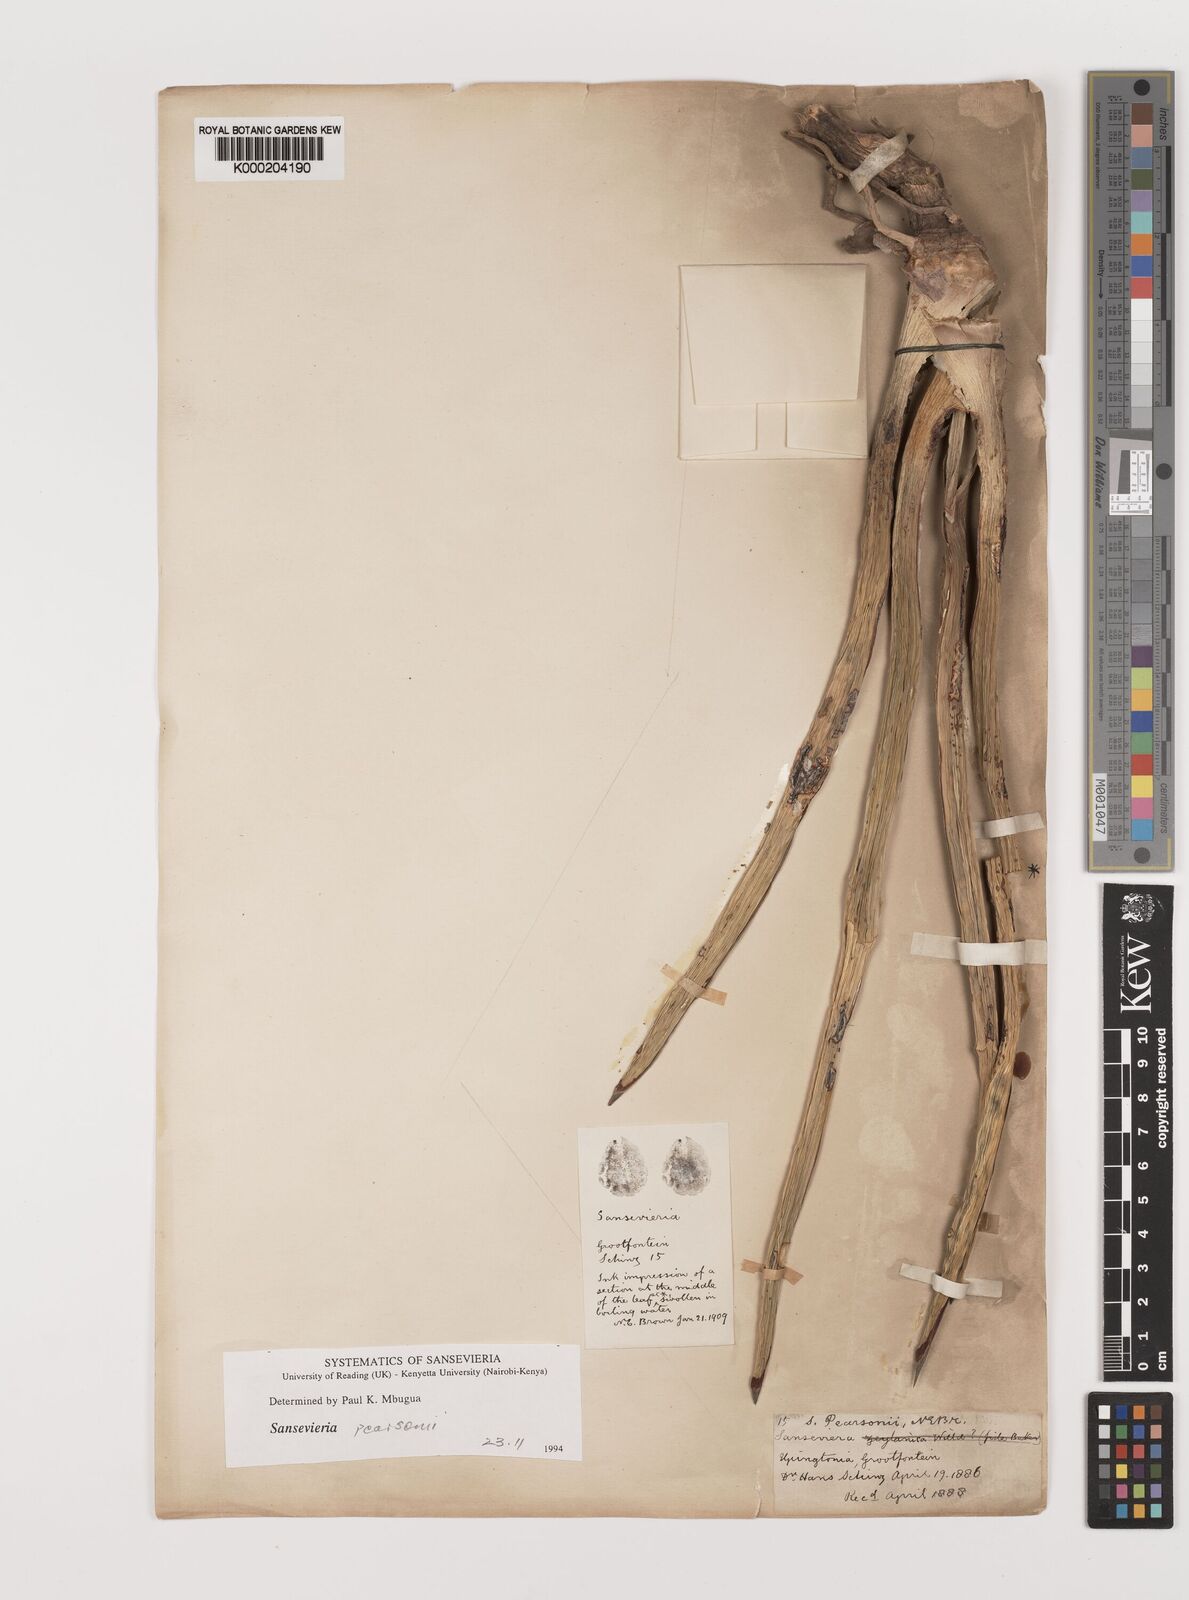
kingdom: Plantae
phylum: Tracheophyta
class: Liliopsida
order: Asparagales
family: Asparagaceae
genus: Dracaena
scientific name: Dracaena pearsonii
